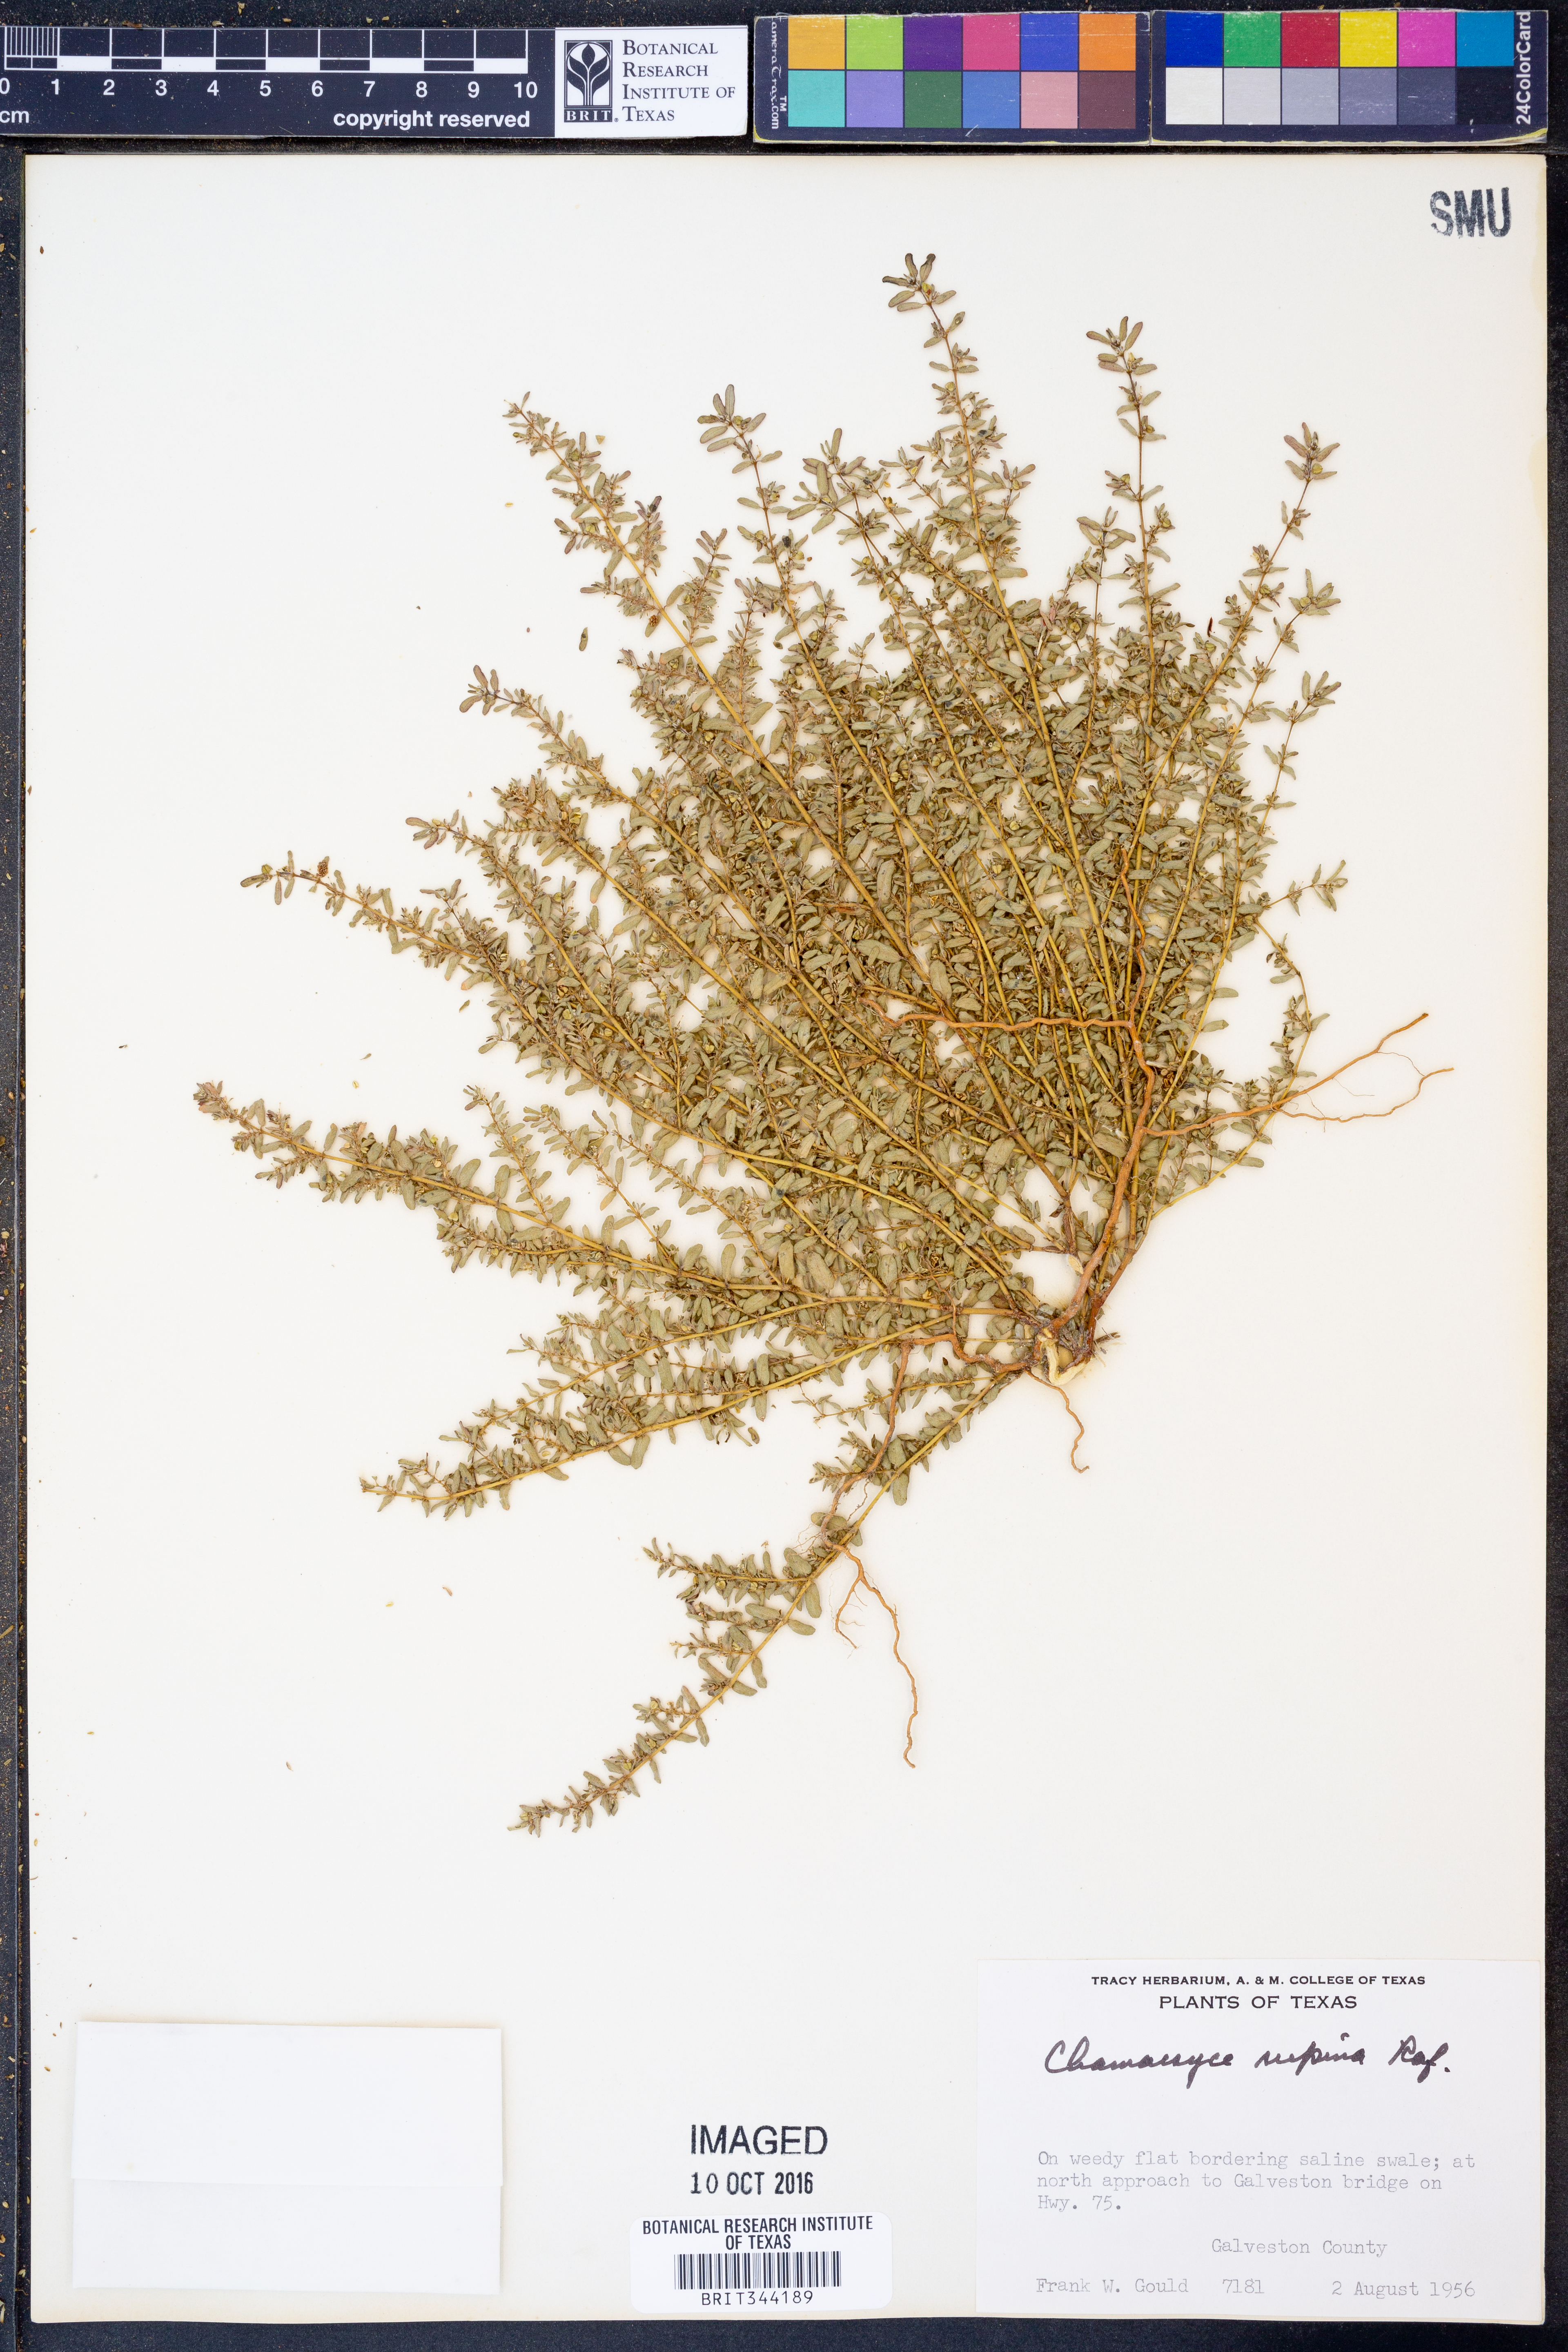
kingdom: Plantae
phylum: Tracheophyta
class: Magnoliopsida
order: Malpighiales
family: Euphorbiaceae
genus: Euphorbia
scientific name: Euphorbia maculata
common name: Spotted spurge
